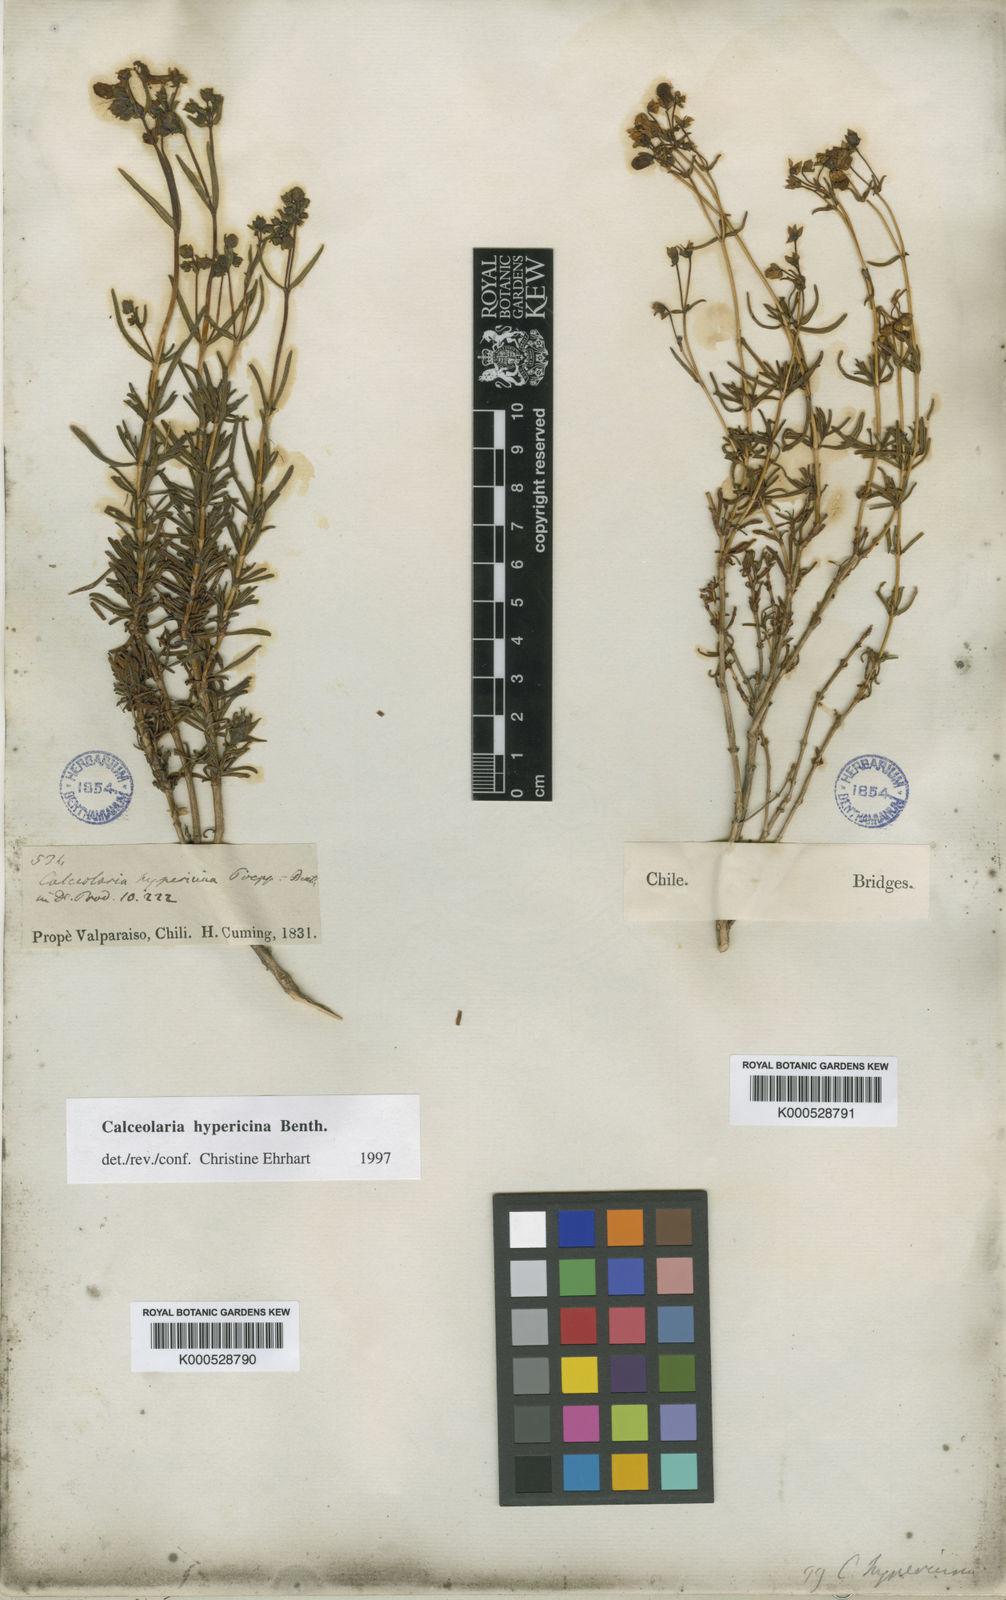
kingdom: Plantae
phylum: Tracheophyta
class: Magnoliopsida
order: Lamiales
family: Calceolariaceae
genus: Calceolaria
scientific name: Calceolaria hypericina
